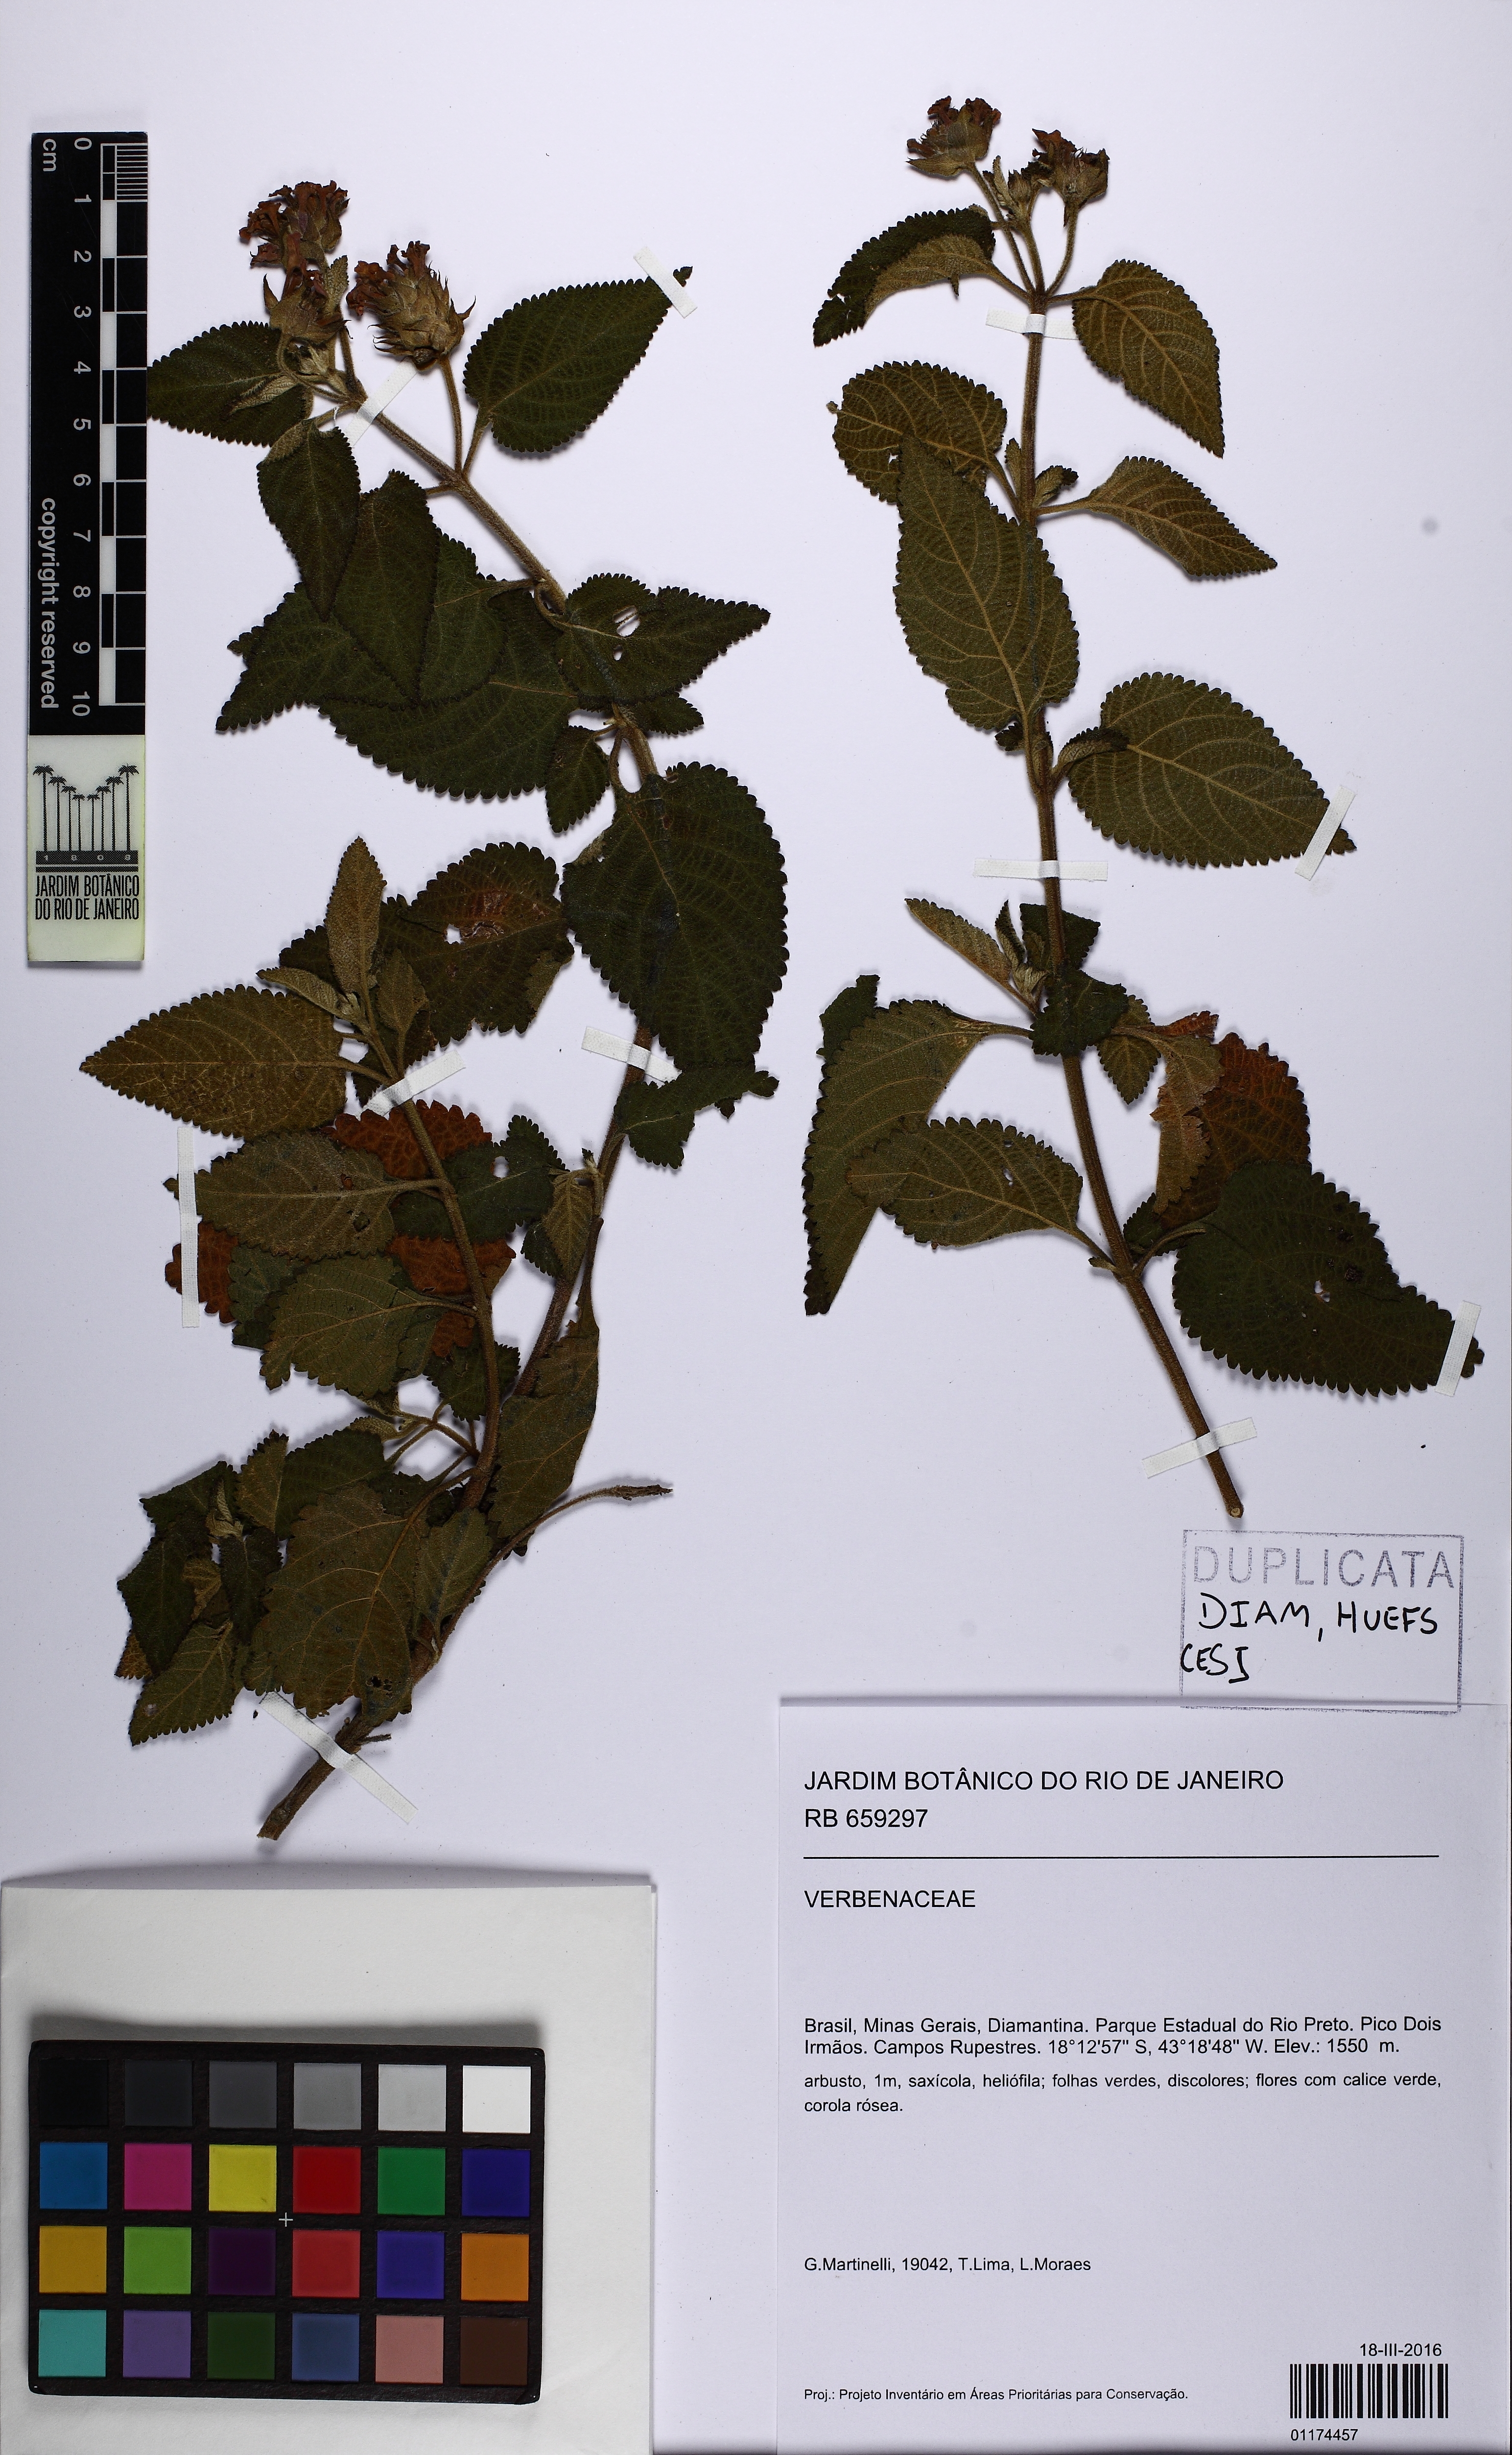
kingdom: Plantae
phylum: Tracheophyta
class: Magnoliopsida
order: Lamiales
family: Verbenaceae
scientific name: Verbenaceae
